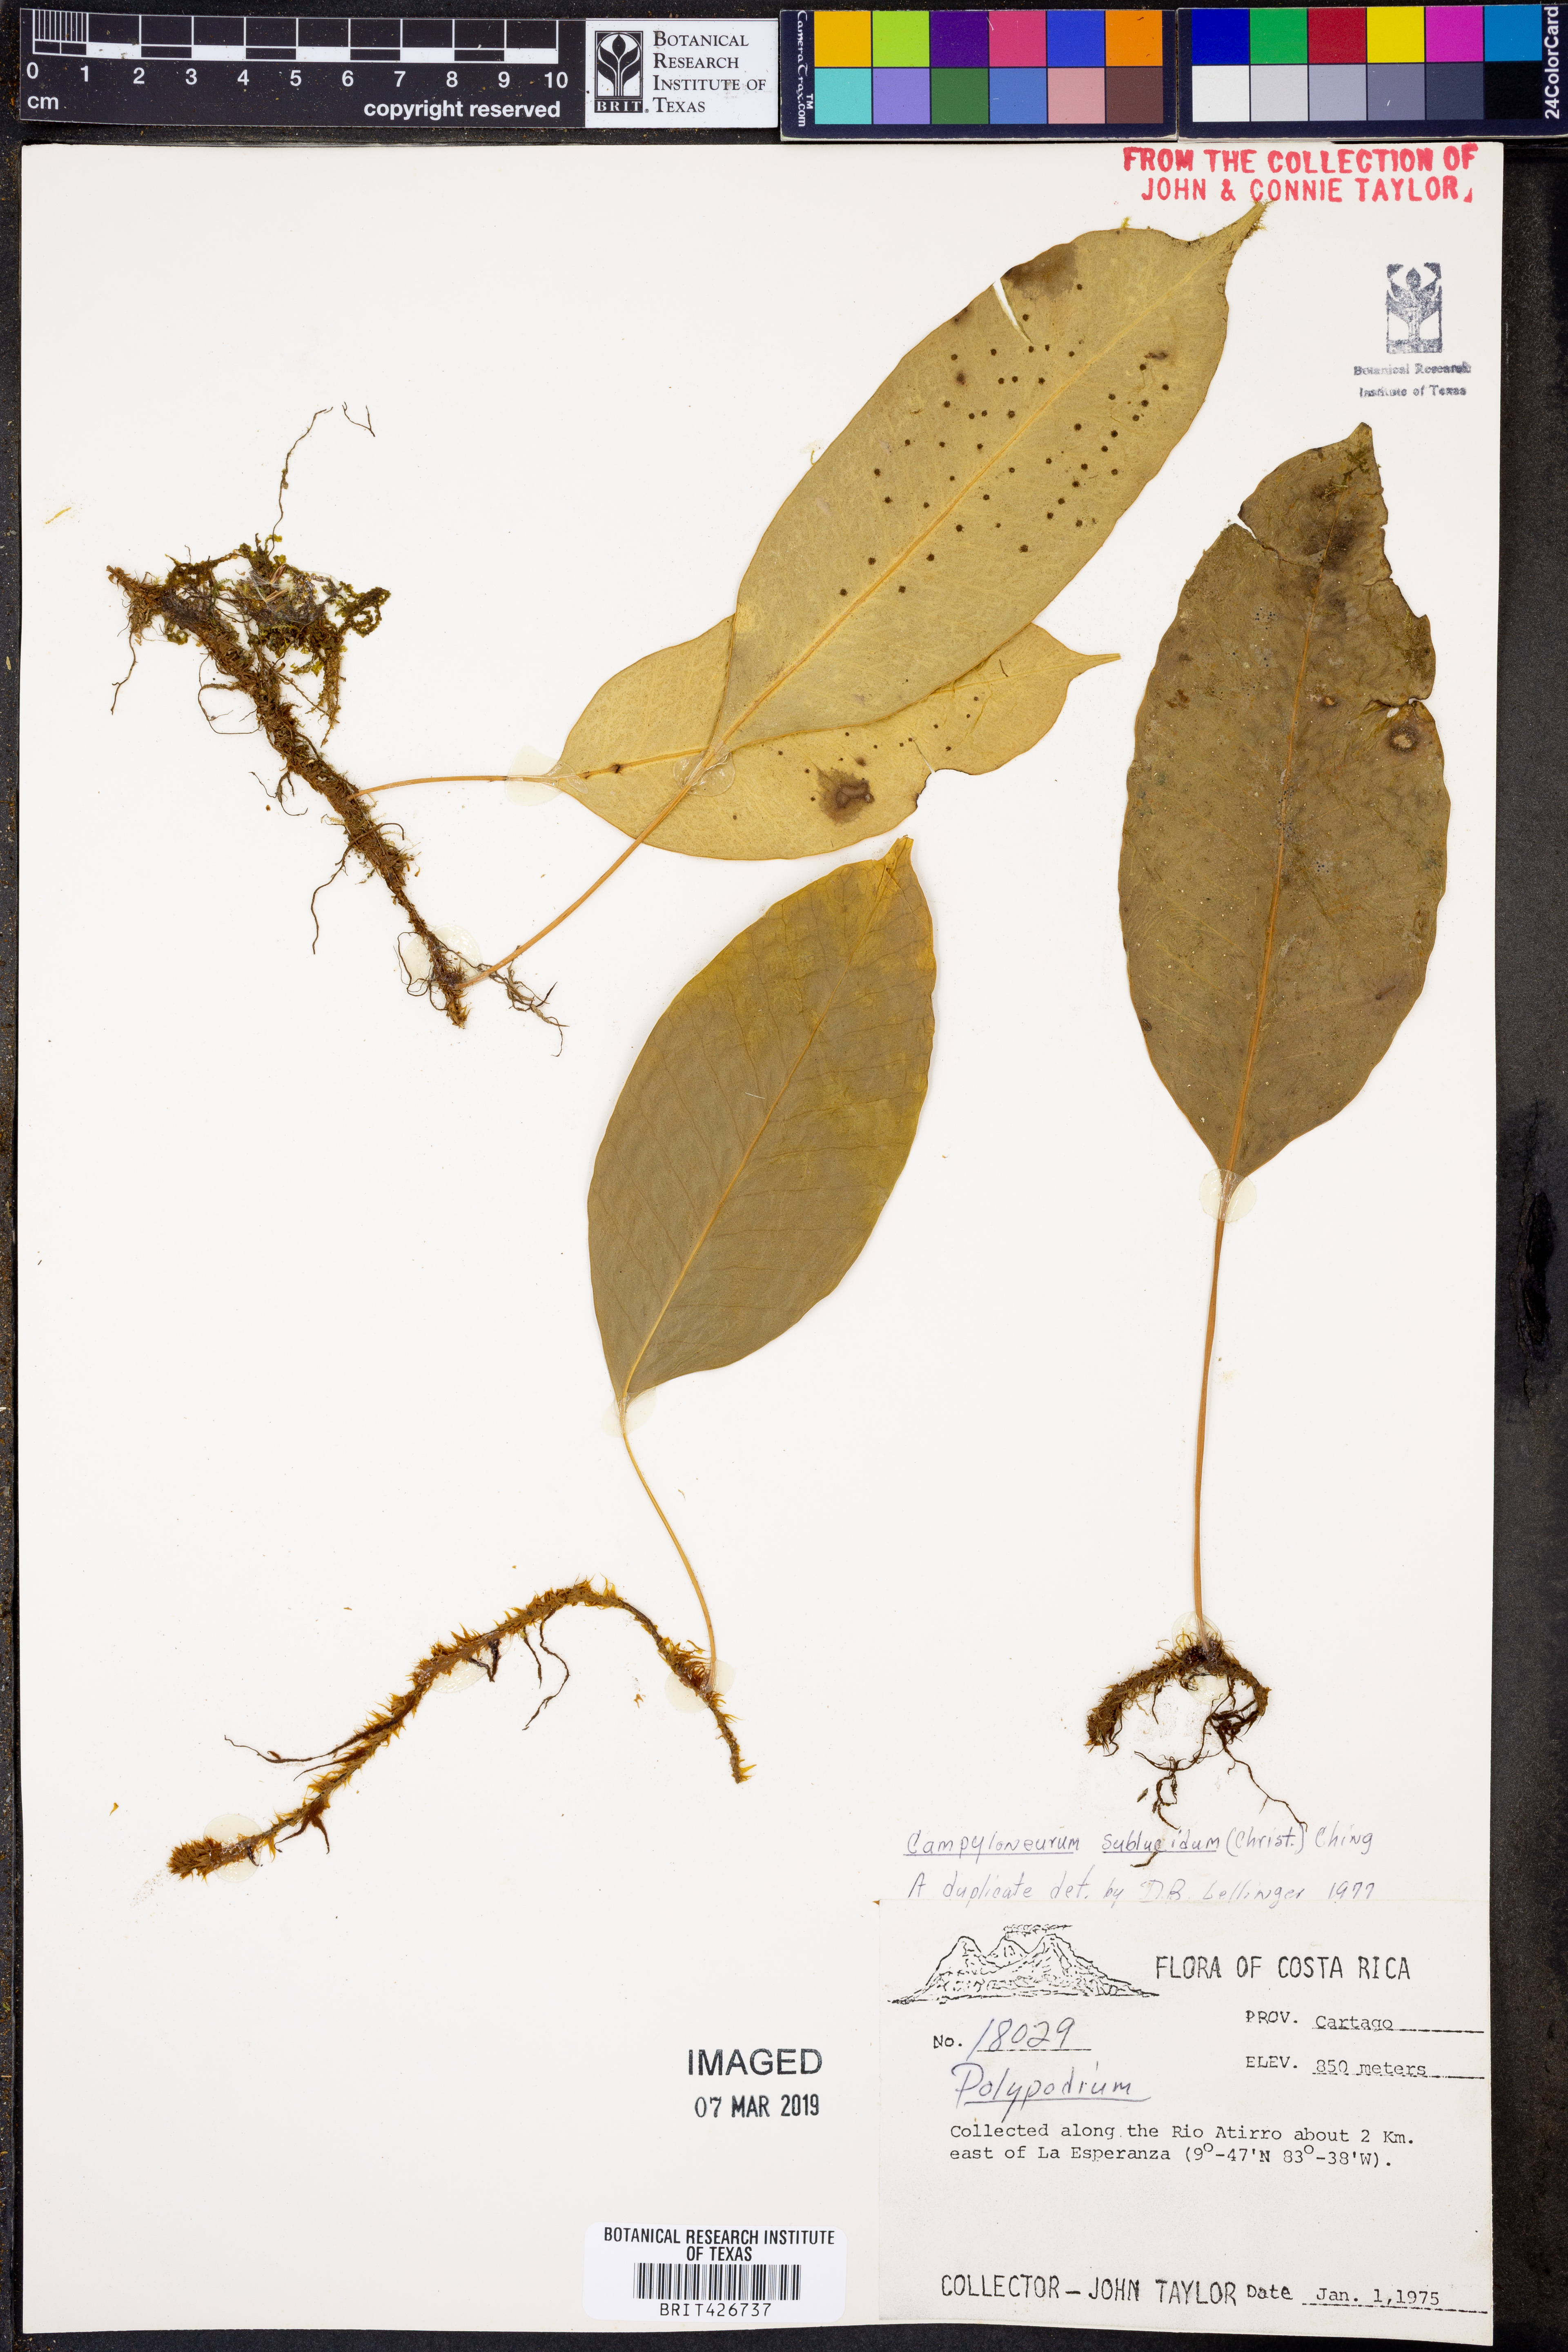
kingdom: Plantae
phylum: Tracheophyta
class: Polypodiopsida
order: Polypodiales
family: Polypodiaceae
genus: Campyloneurum
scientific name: Campyloneurum sublucidum
